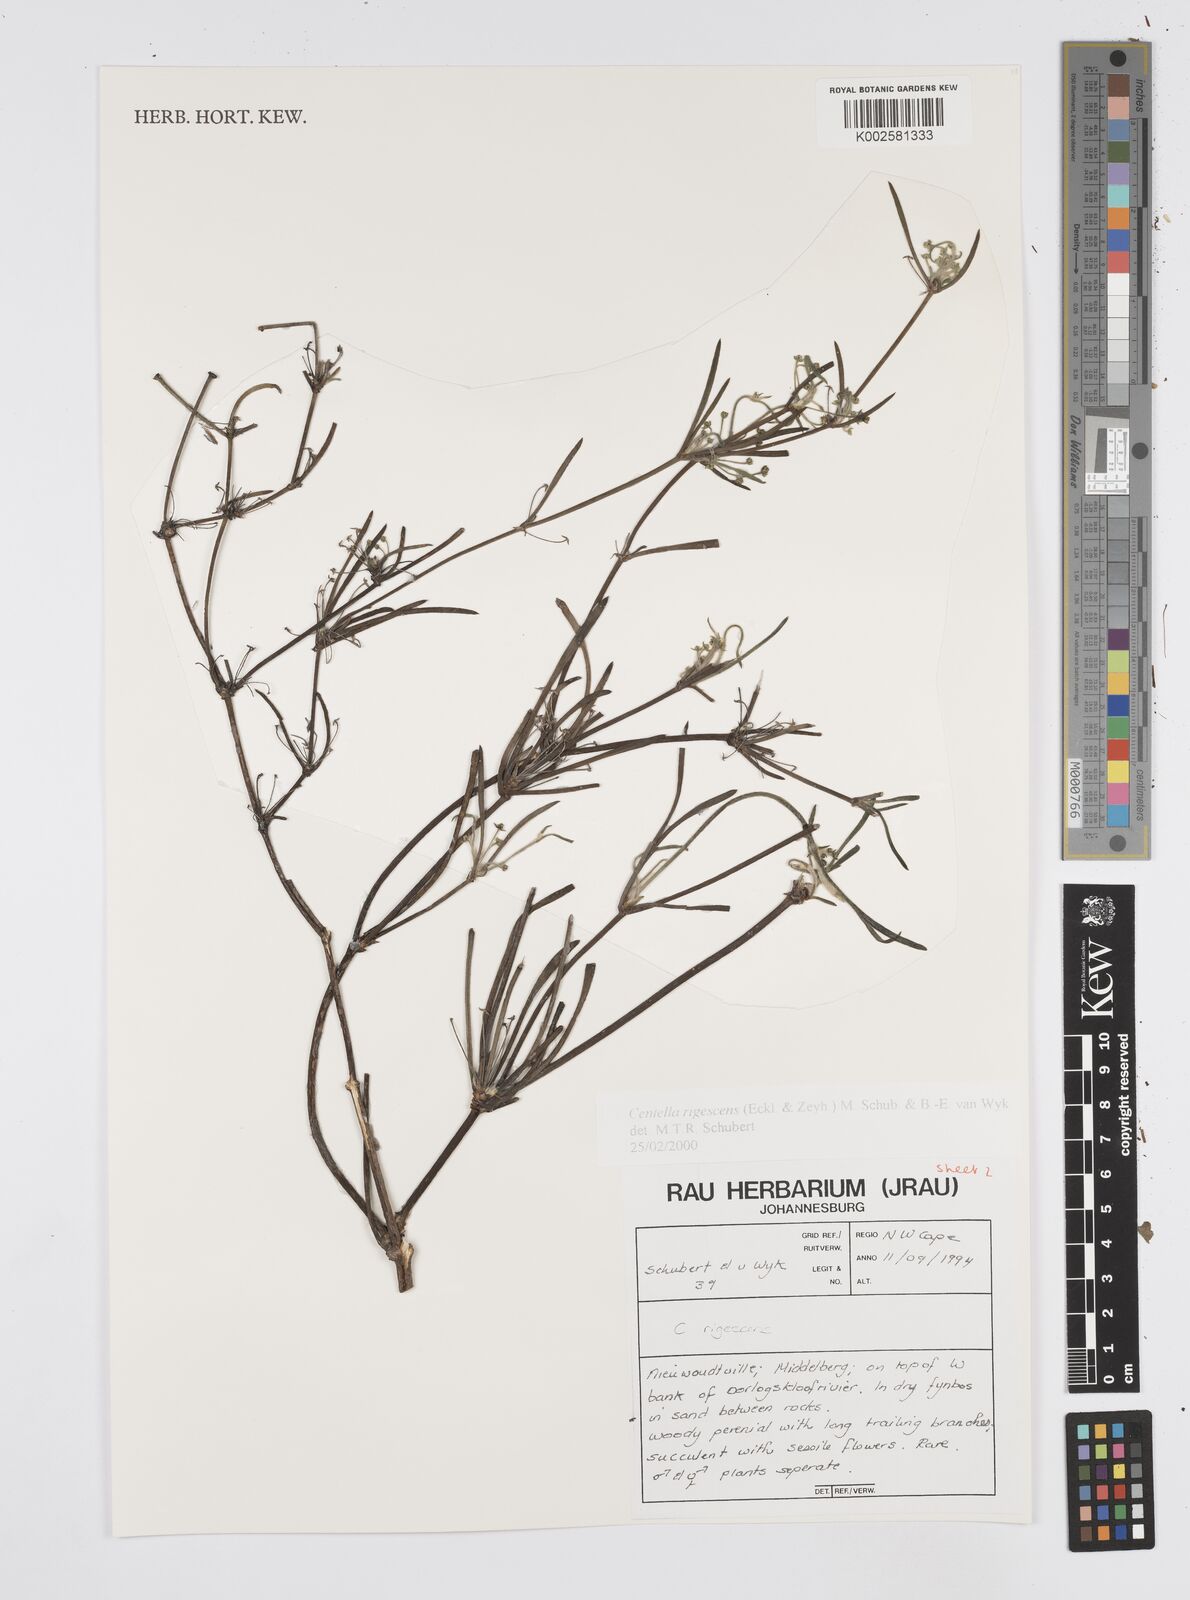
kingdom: Plantae
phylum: Tracheophyta
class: Magnoliopsida
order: Apiales
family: Apiaceae
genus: Centella
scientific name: Centella
